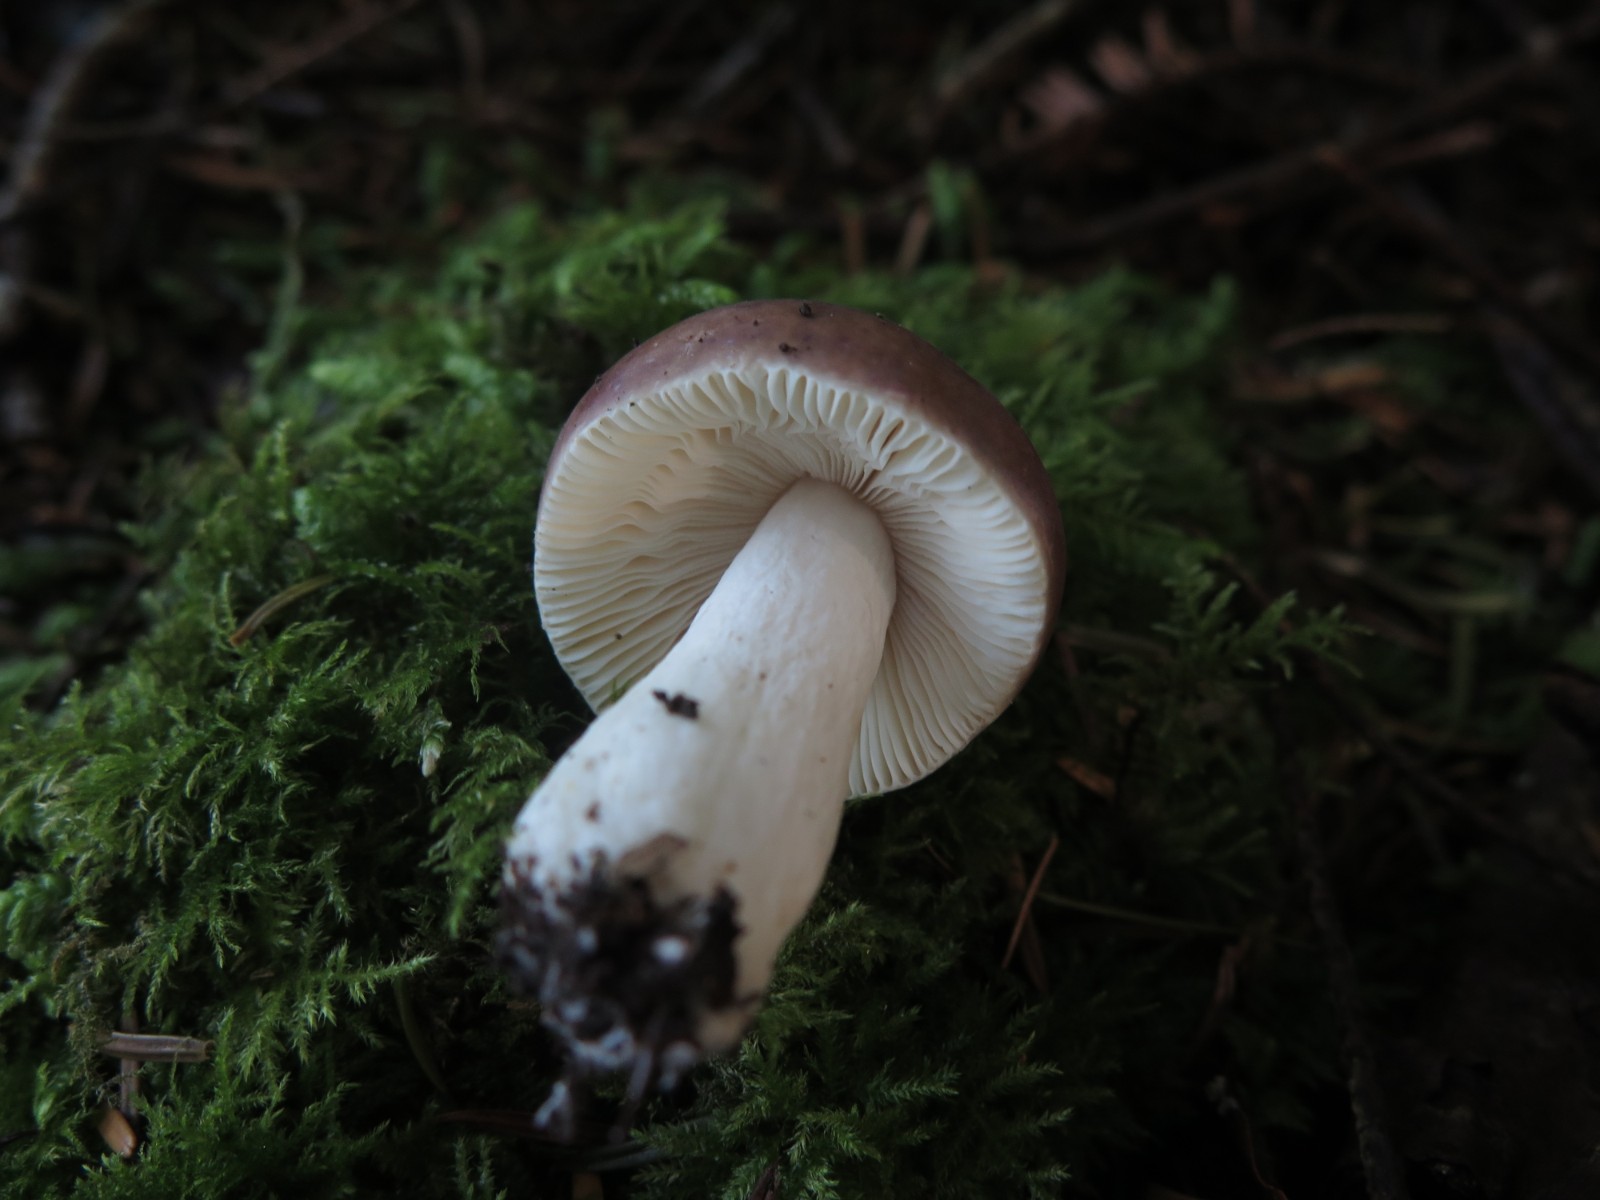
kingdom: Fungi
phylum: Basidiomycota
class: Agaricomycetes
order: Russulales
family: Russulaceae
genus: Russula
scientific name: Russula fragilis
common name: savbladet skørhat
